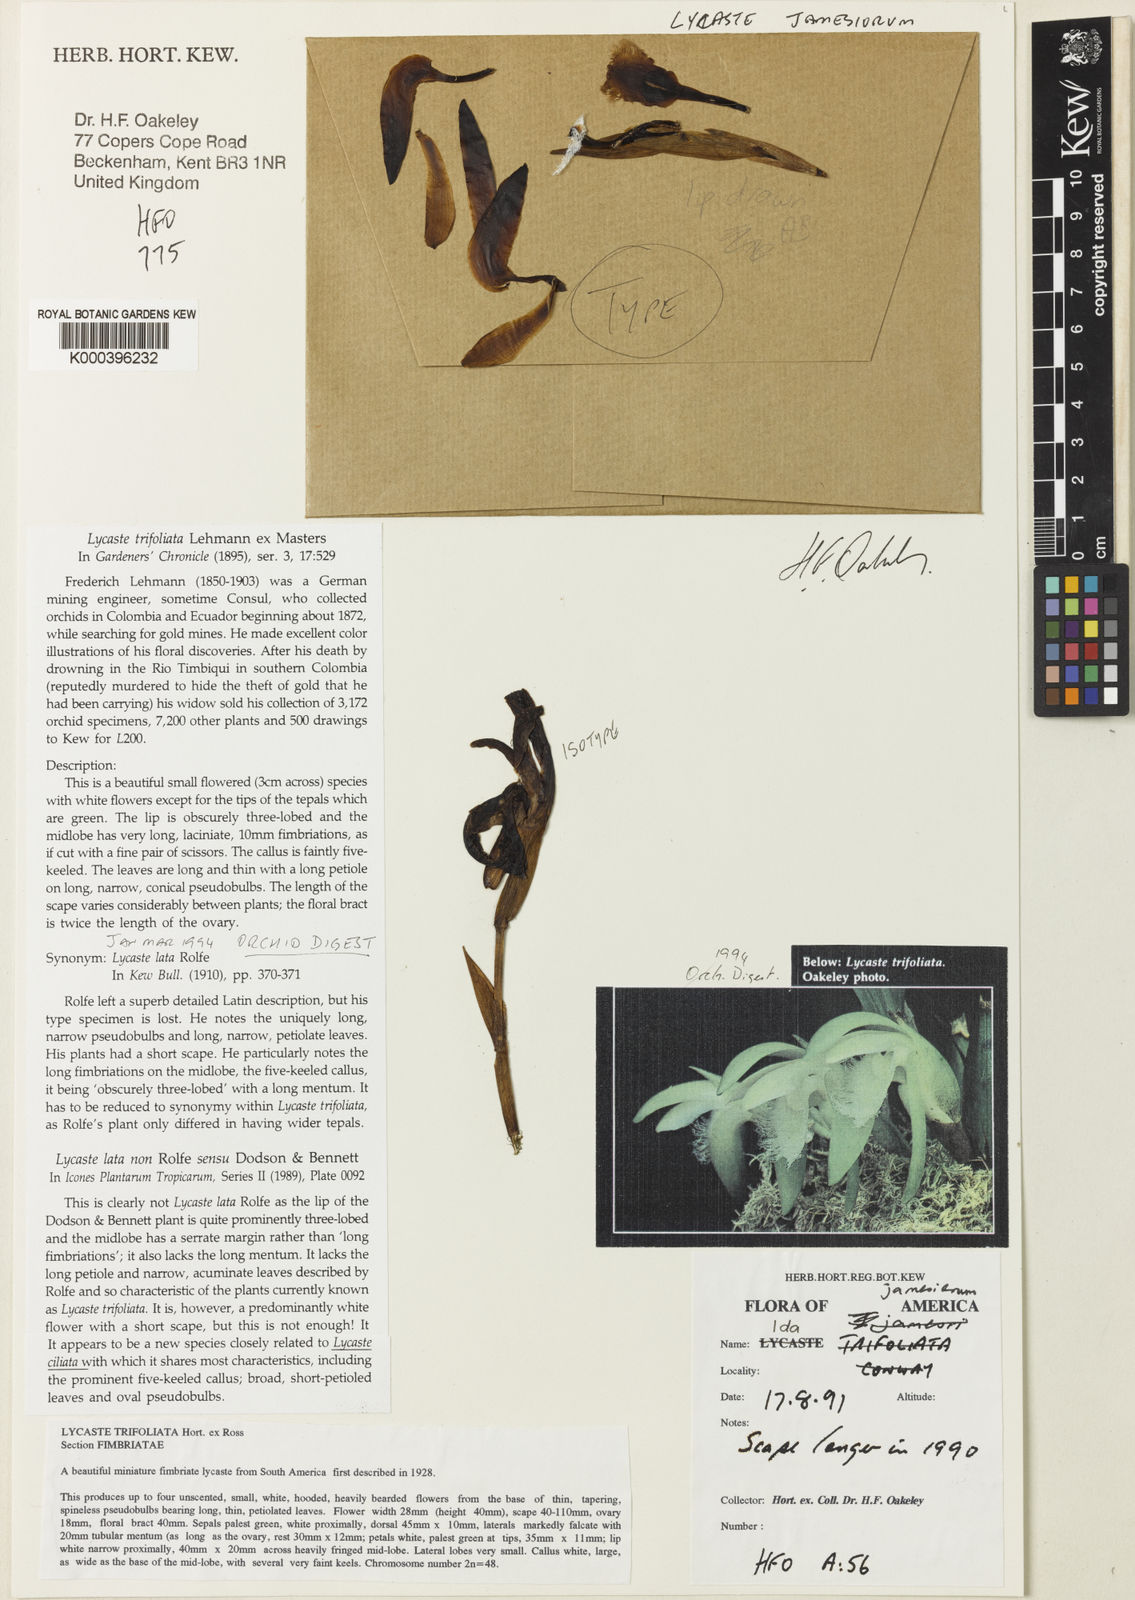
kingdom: Plantae
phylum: Tracheophyta
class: Liliopsida
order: Asparagales
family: Orchidaceae
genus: Ida
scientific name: Ida jamesiorum
